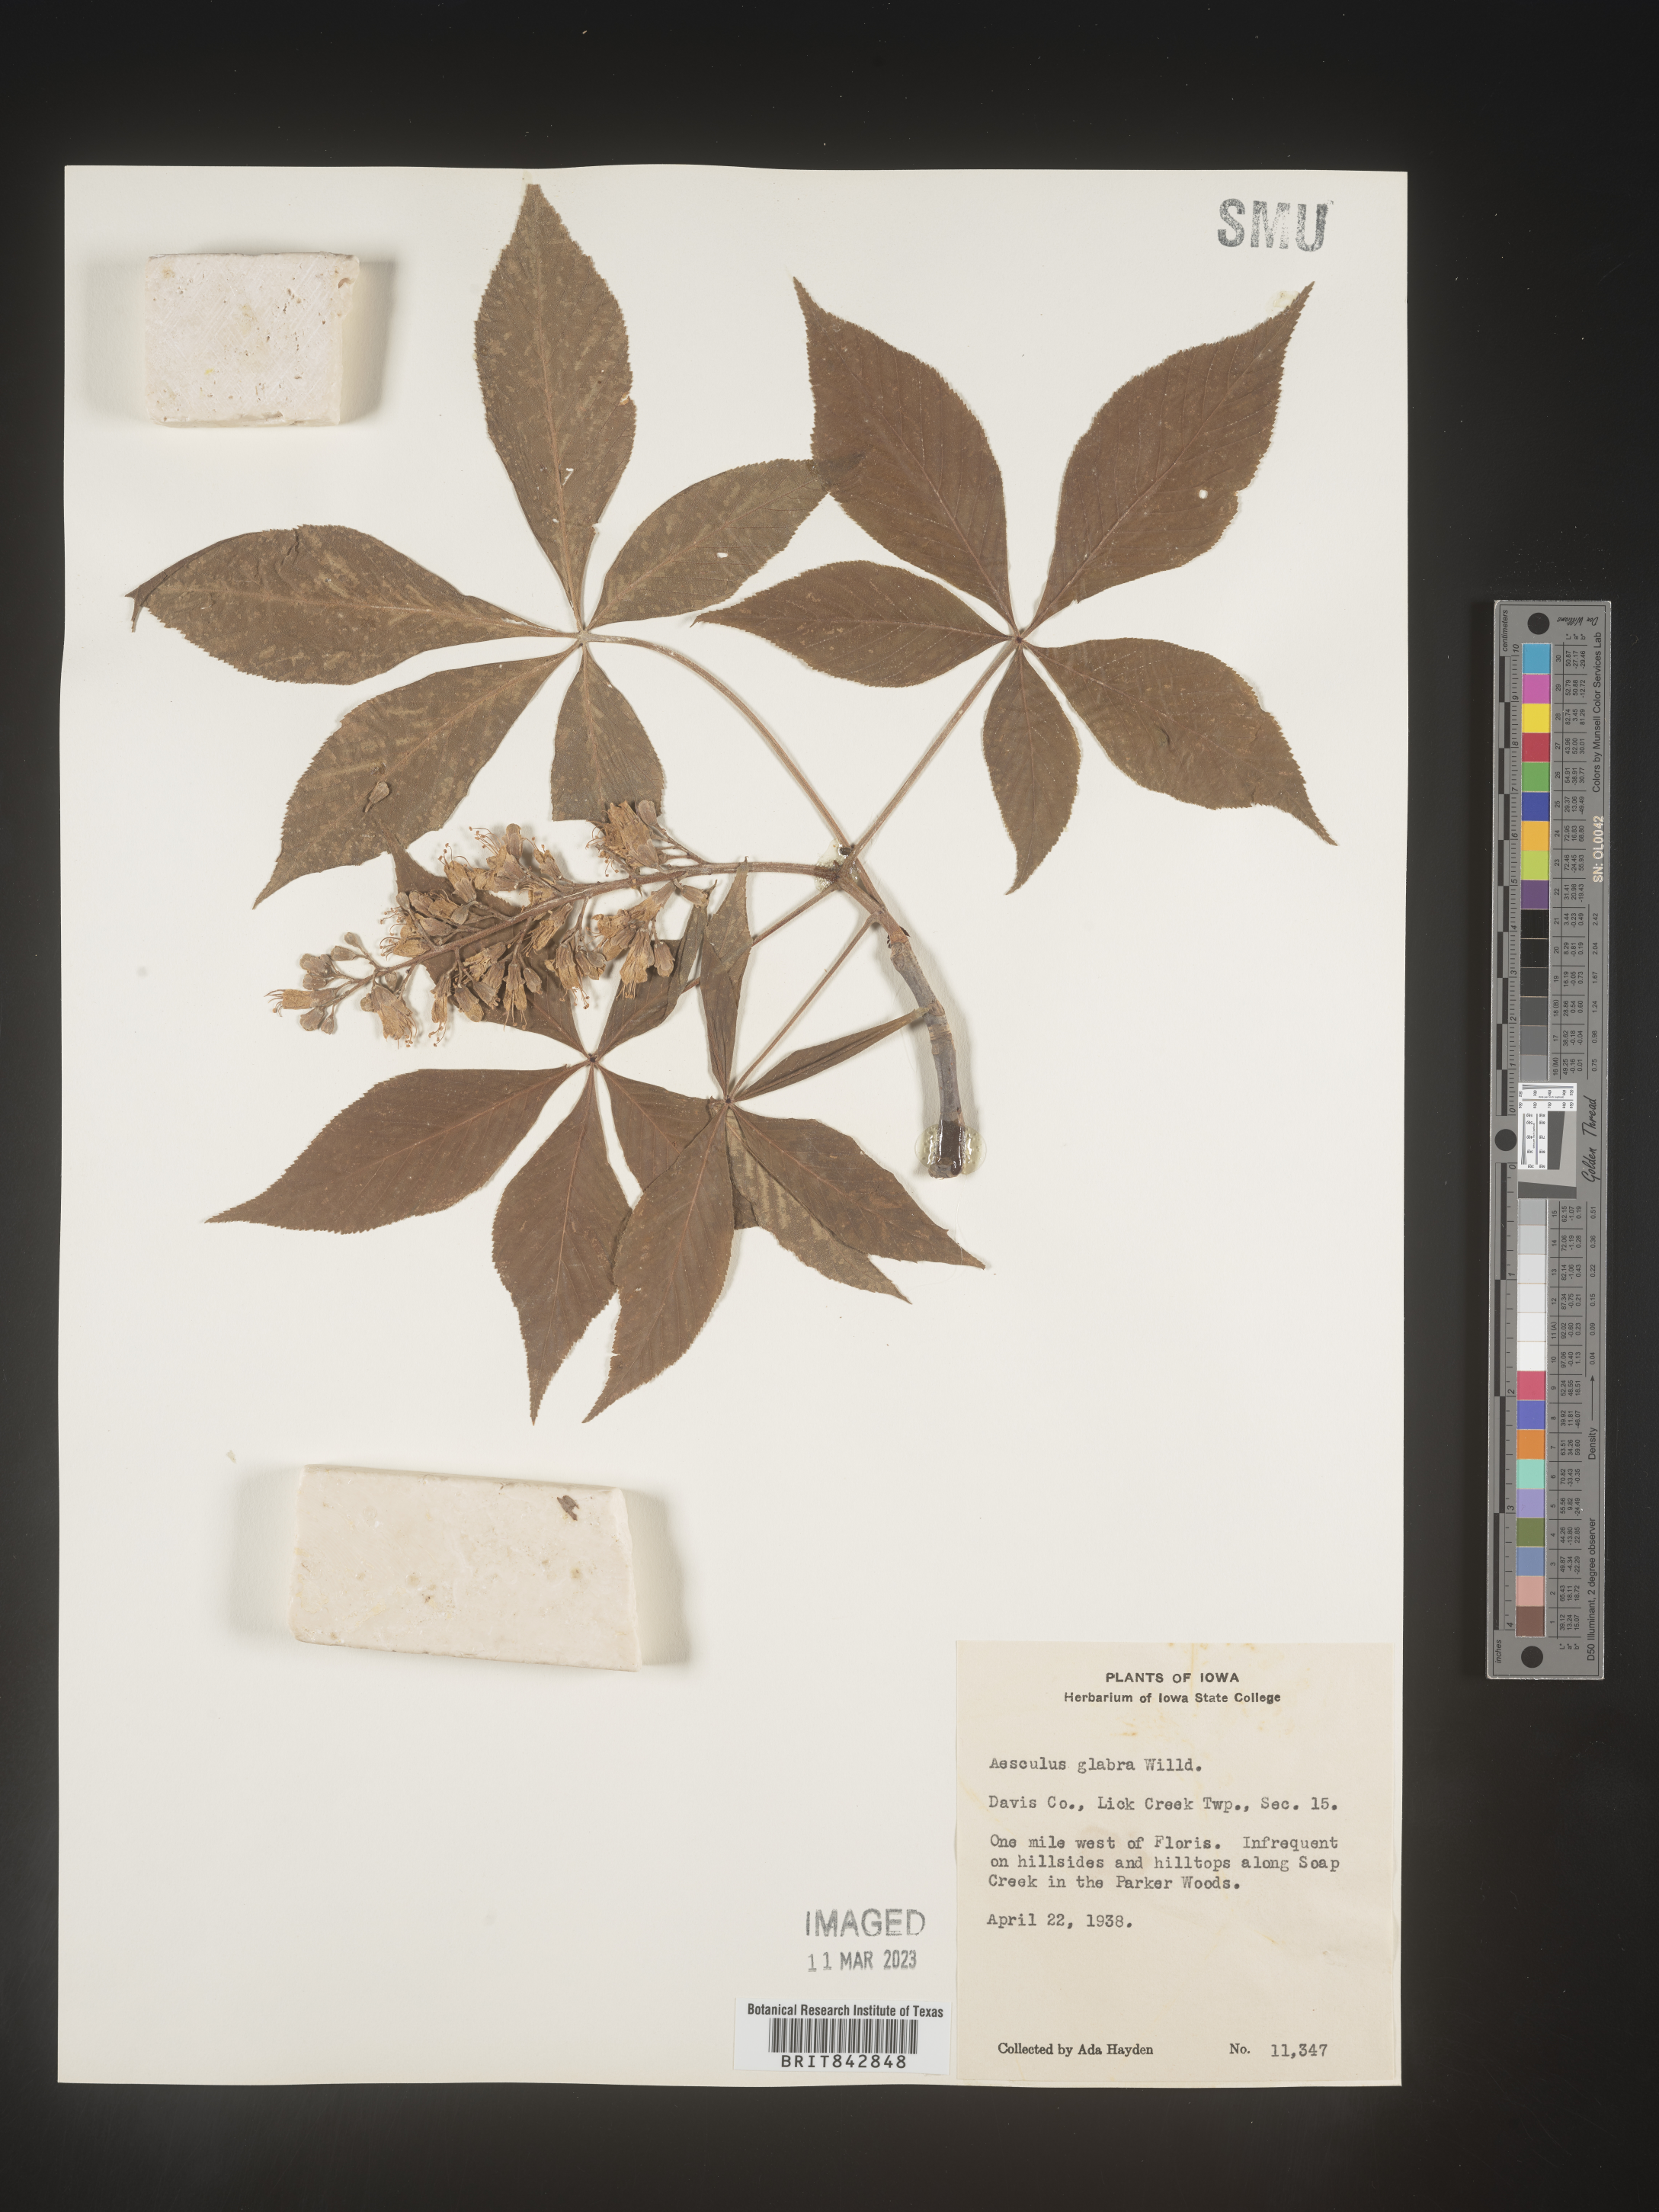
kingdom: Plantae
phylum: Tracheophyta
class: Magnoliopsida
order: Sapindales
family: Sapindaceae
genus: Aesculus
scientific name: Aesculus glabra
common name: Ohio buckeye
